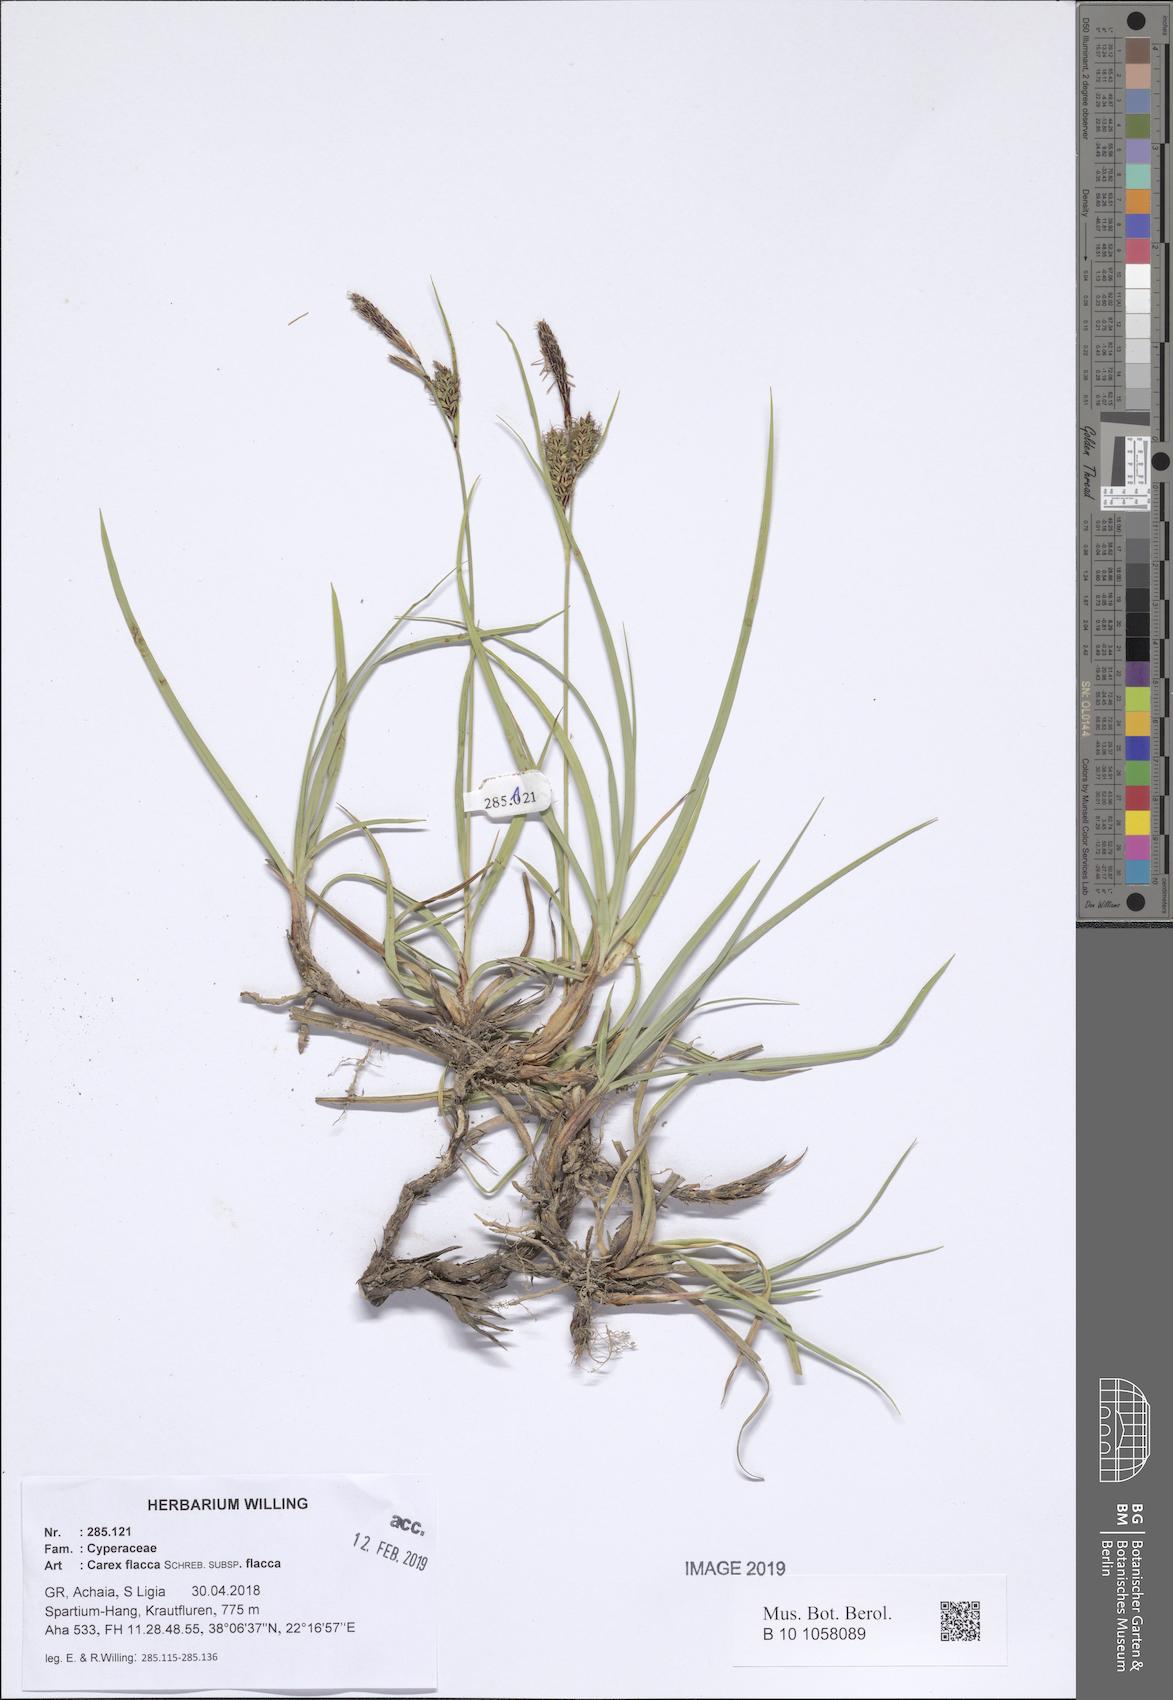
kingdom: Plantae
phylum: Tracheophyta
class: Liliopsida
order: Poales
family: Cyperaceae
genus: Carex
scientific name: Carex flacca
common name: Glaucous sedge
